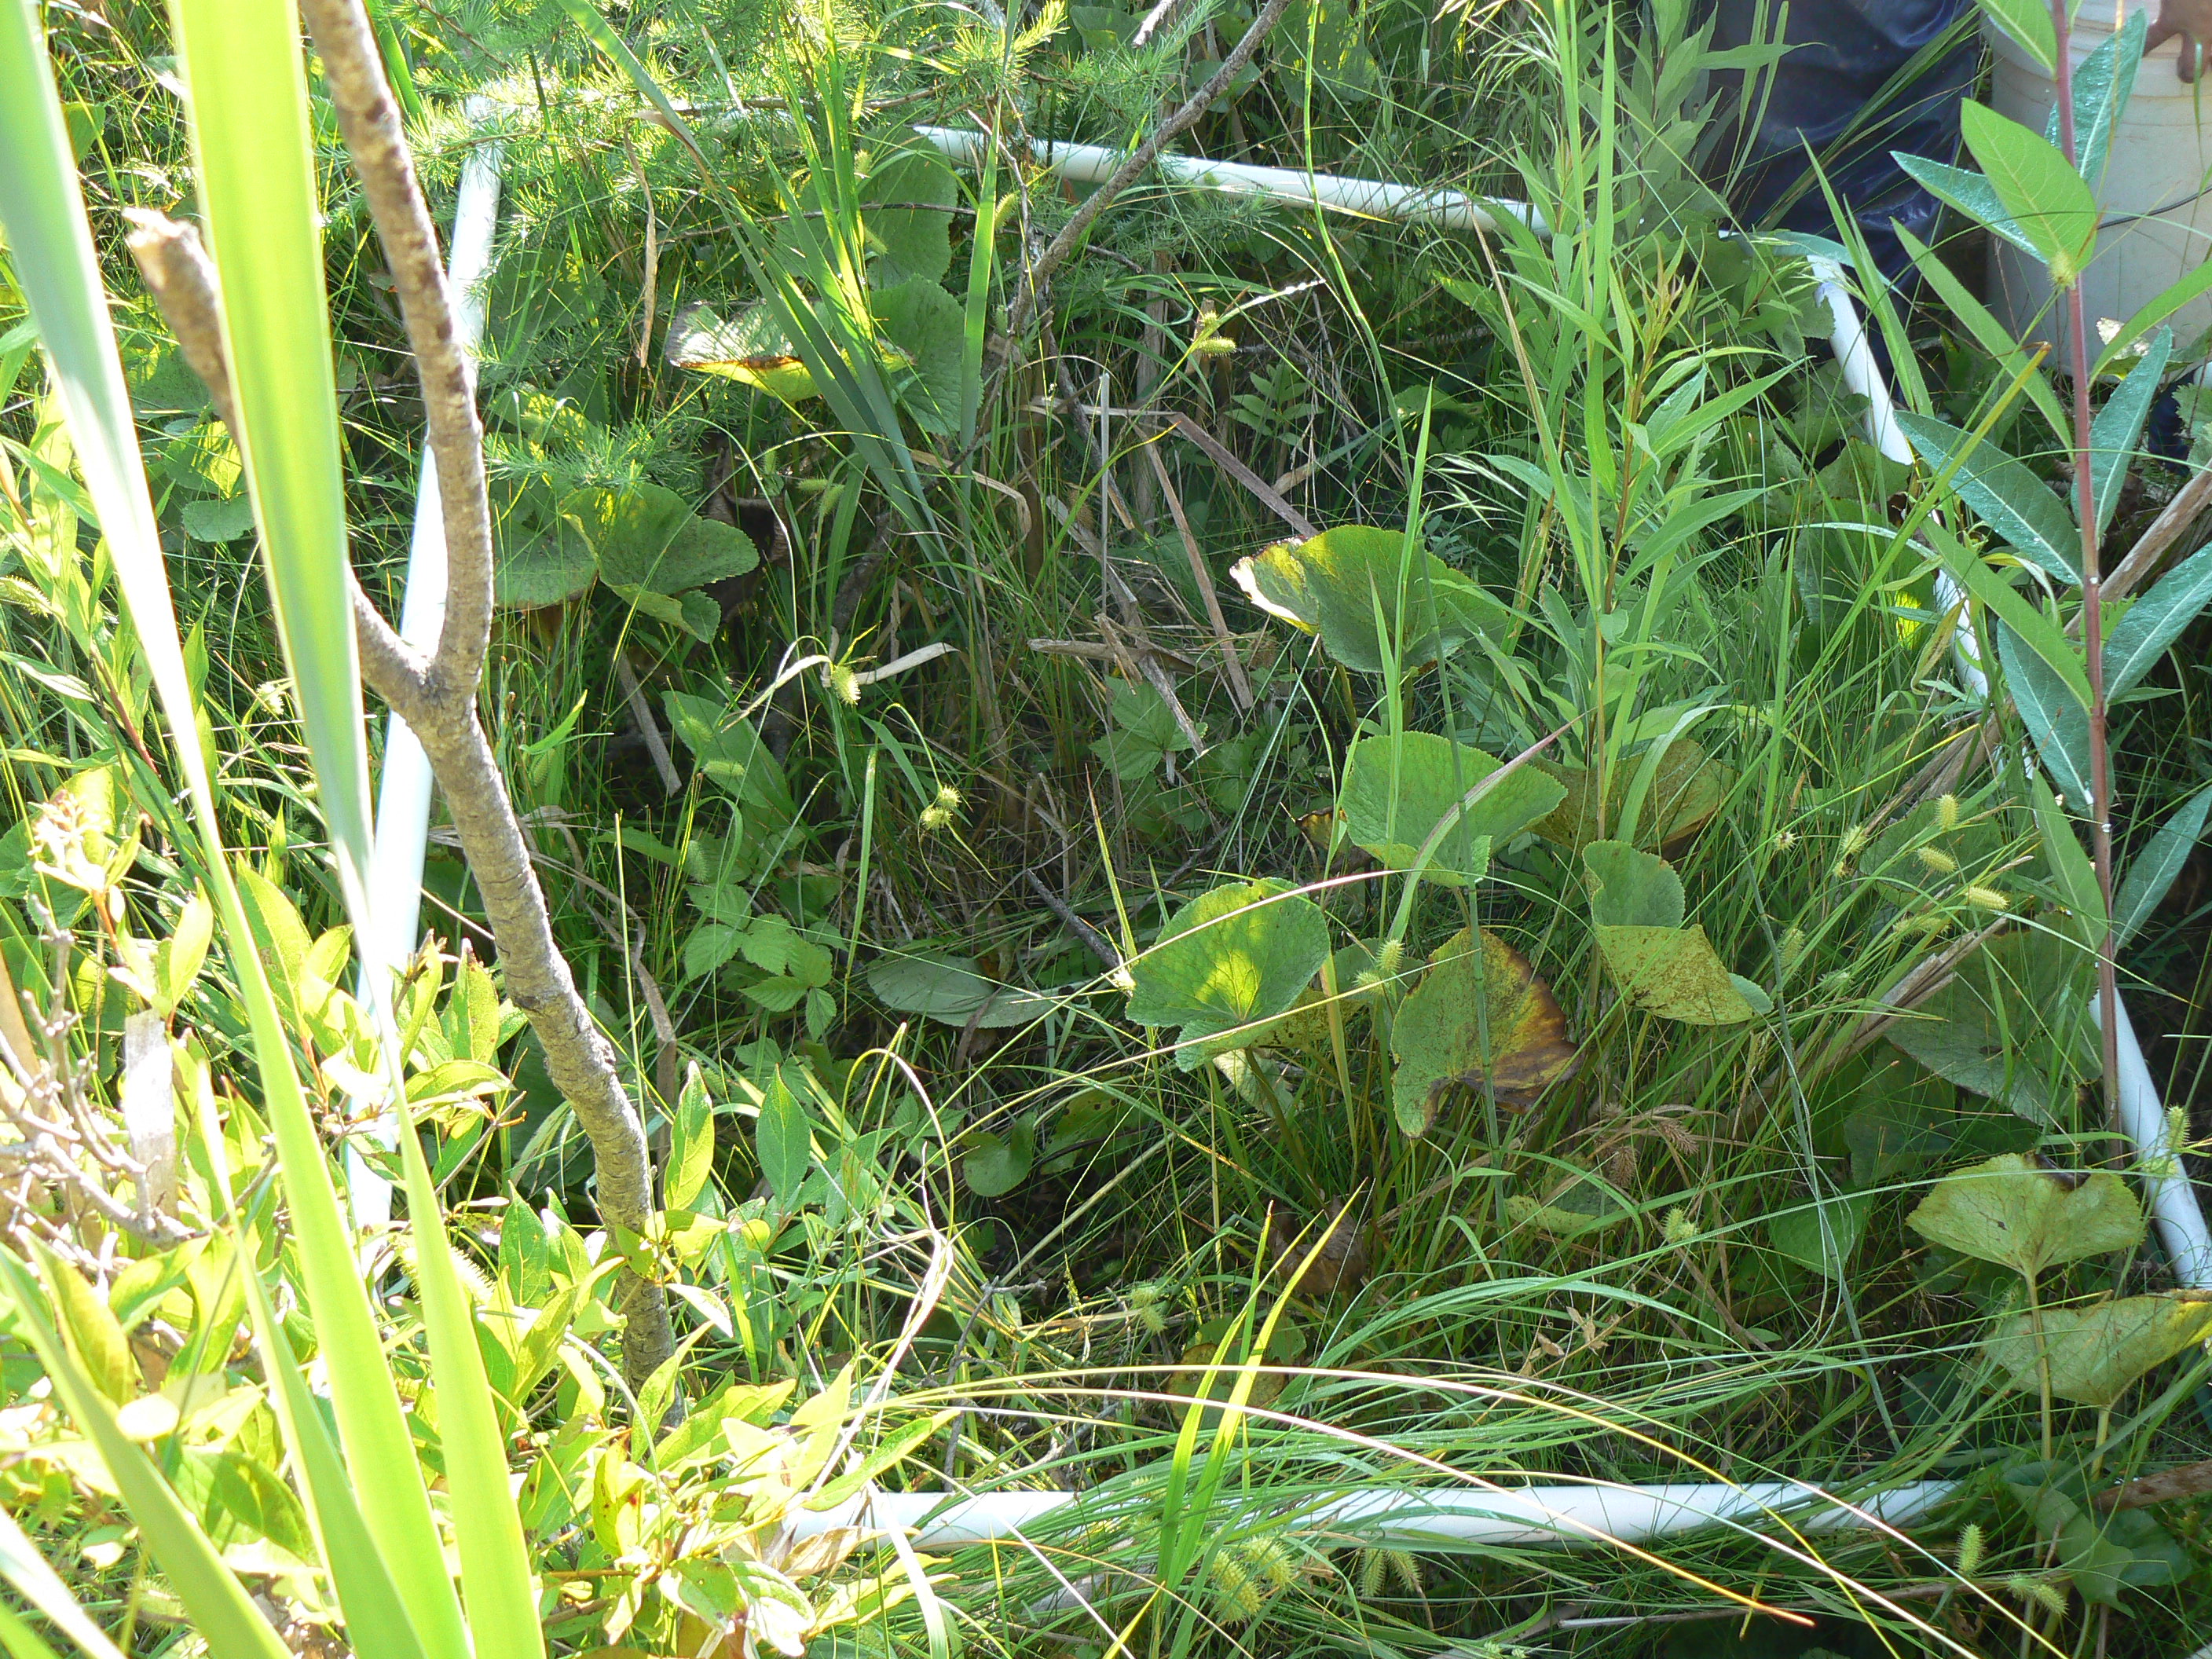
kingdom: Plantae
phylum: Tracheophyta
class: Magnoliopsida
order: Asterales
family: Asteraceae
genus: Solidago
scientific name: Solidago patula
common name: Rough-leaf goldenrod
